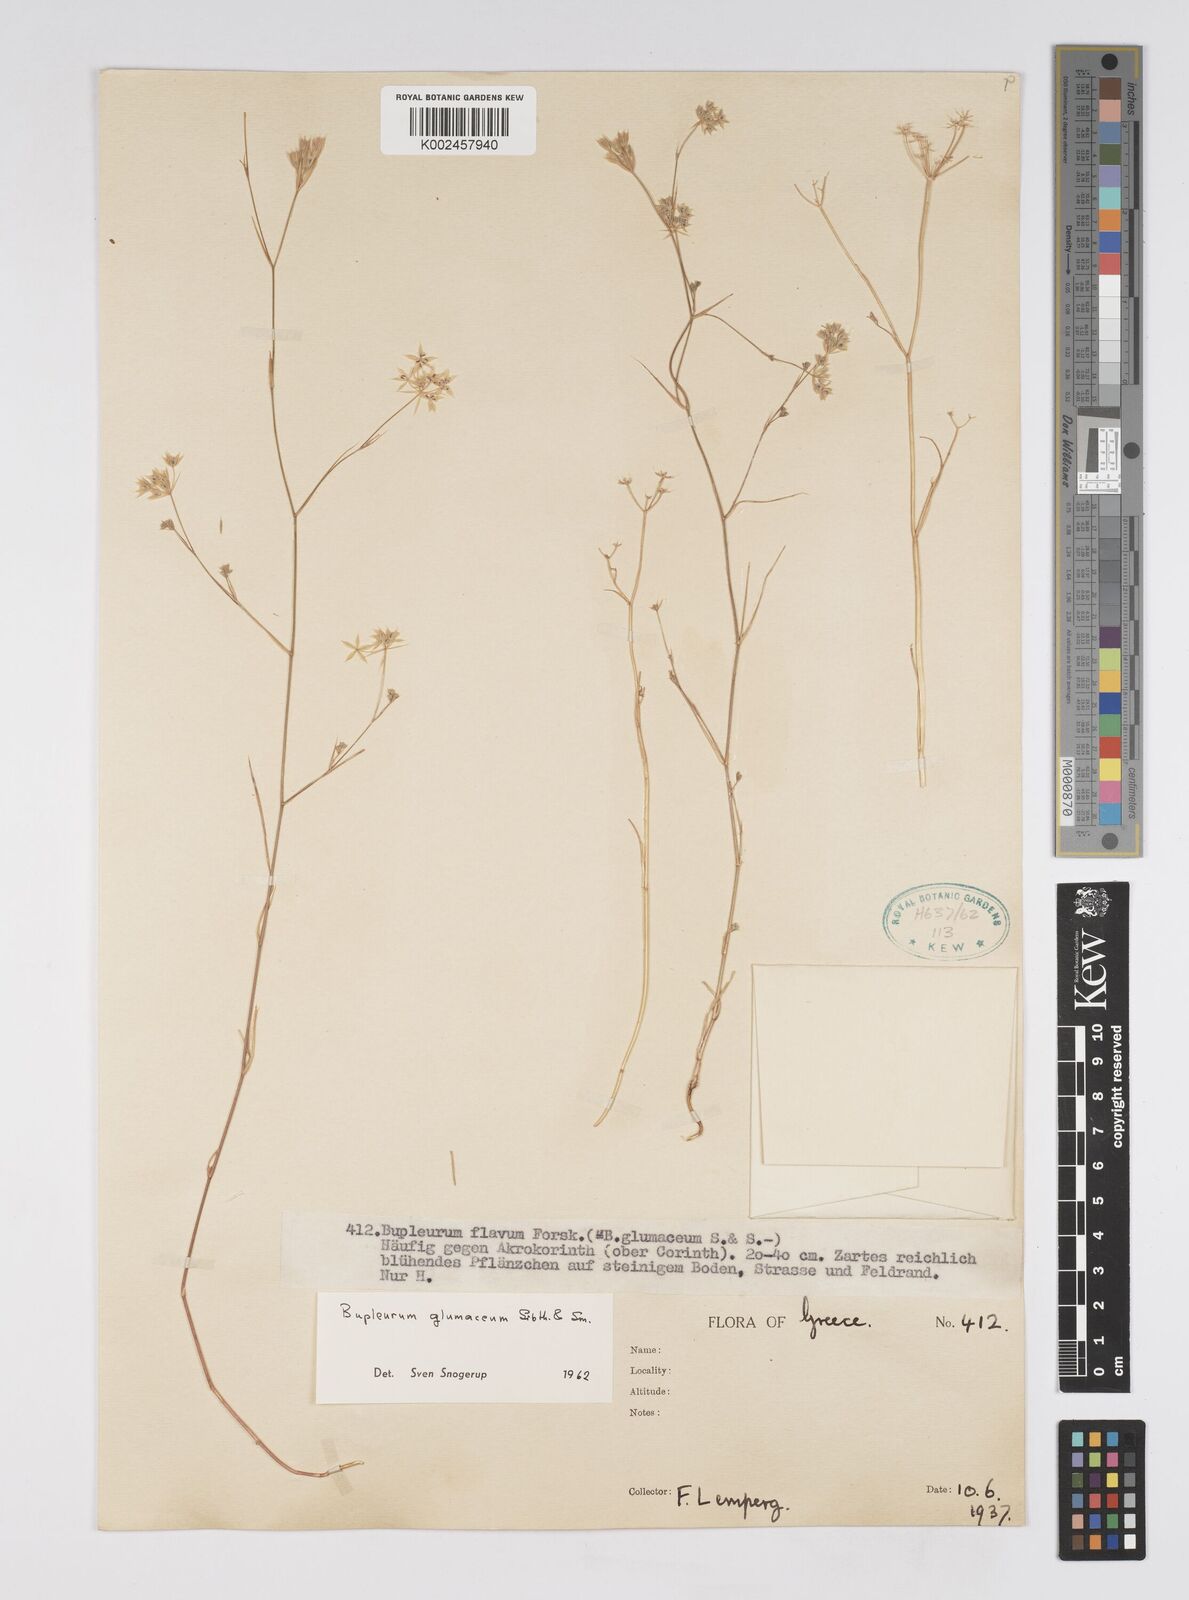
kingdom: Plantae
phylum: Tracheophyta
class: Magnoliopsida
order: Apiales
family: Apiaceae
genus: Bupleurum
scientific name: Bupleurum glumaceum
